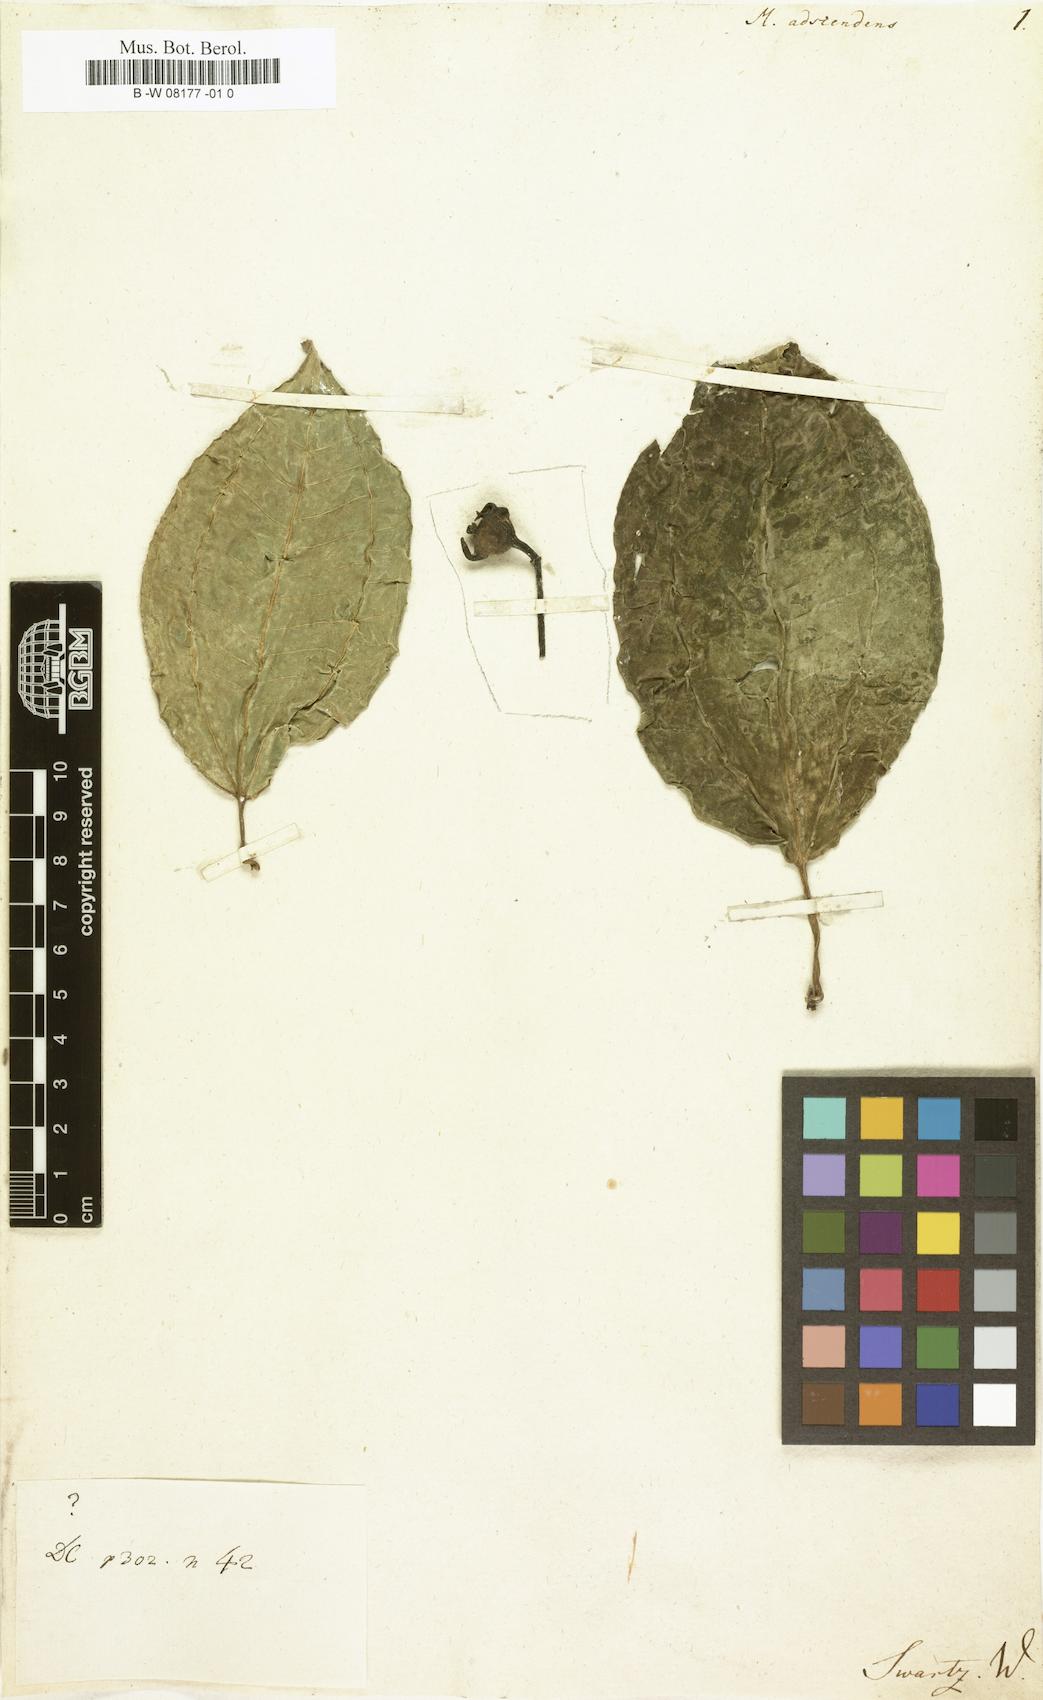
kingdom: Plantae
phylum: Tracheophyta
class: Magnoliopsida
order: Myrtales
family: Melastomataceae
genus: Adelobotrys
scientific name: Adelobotrys adscendens
